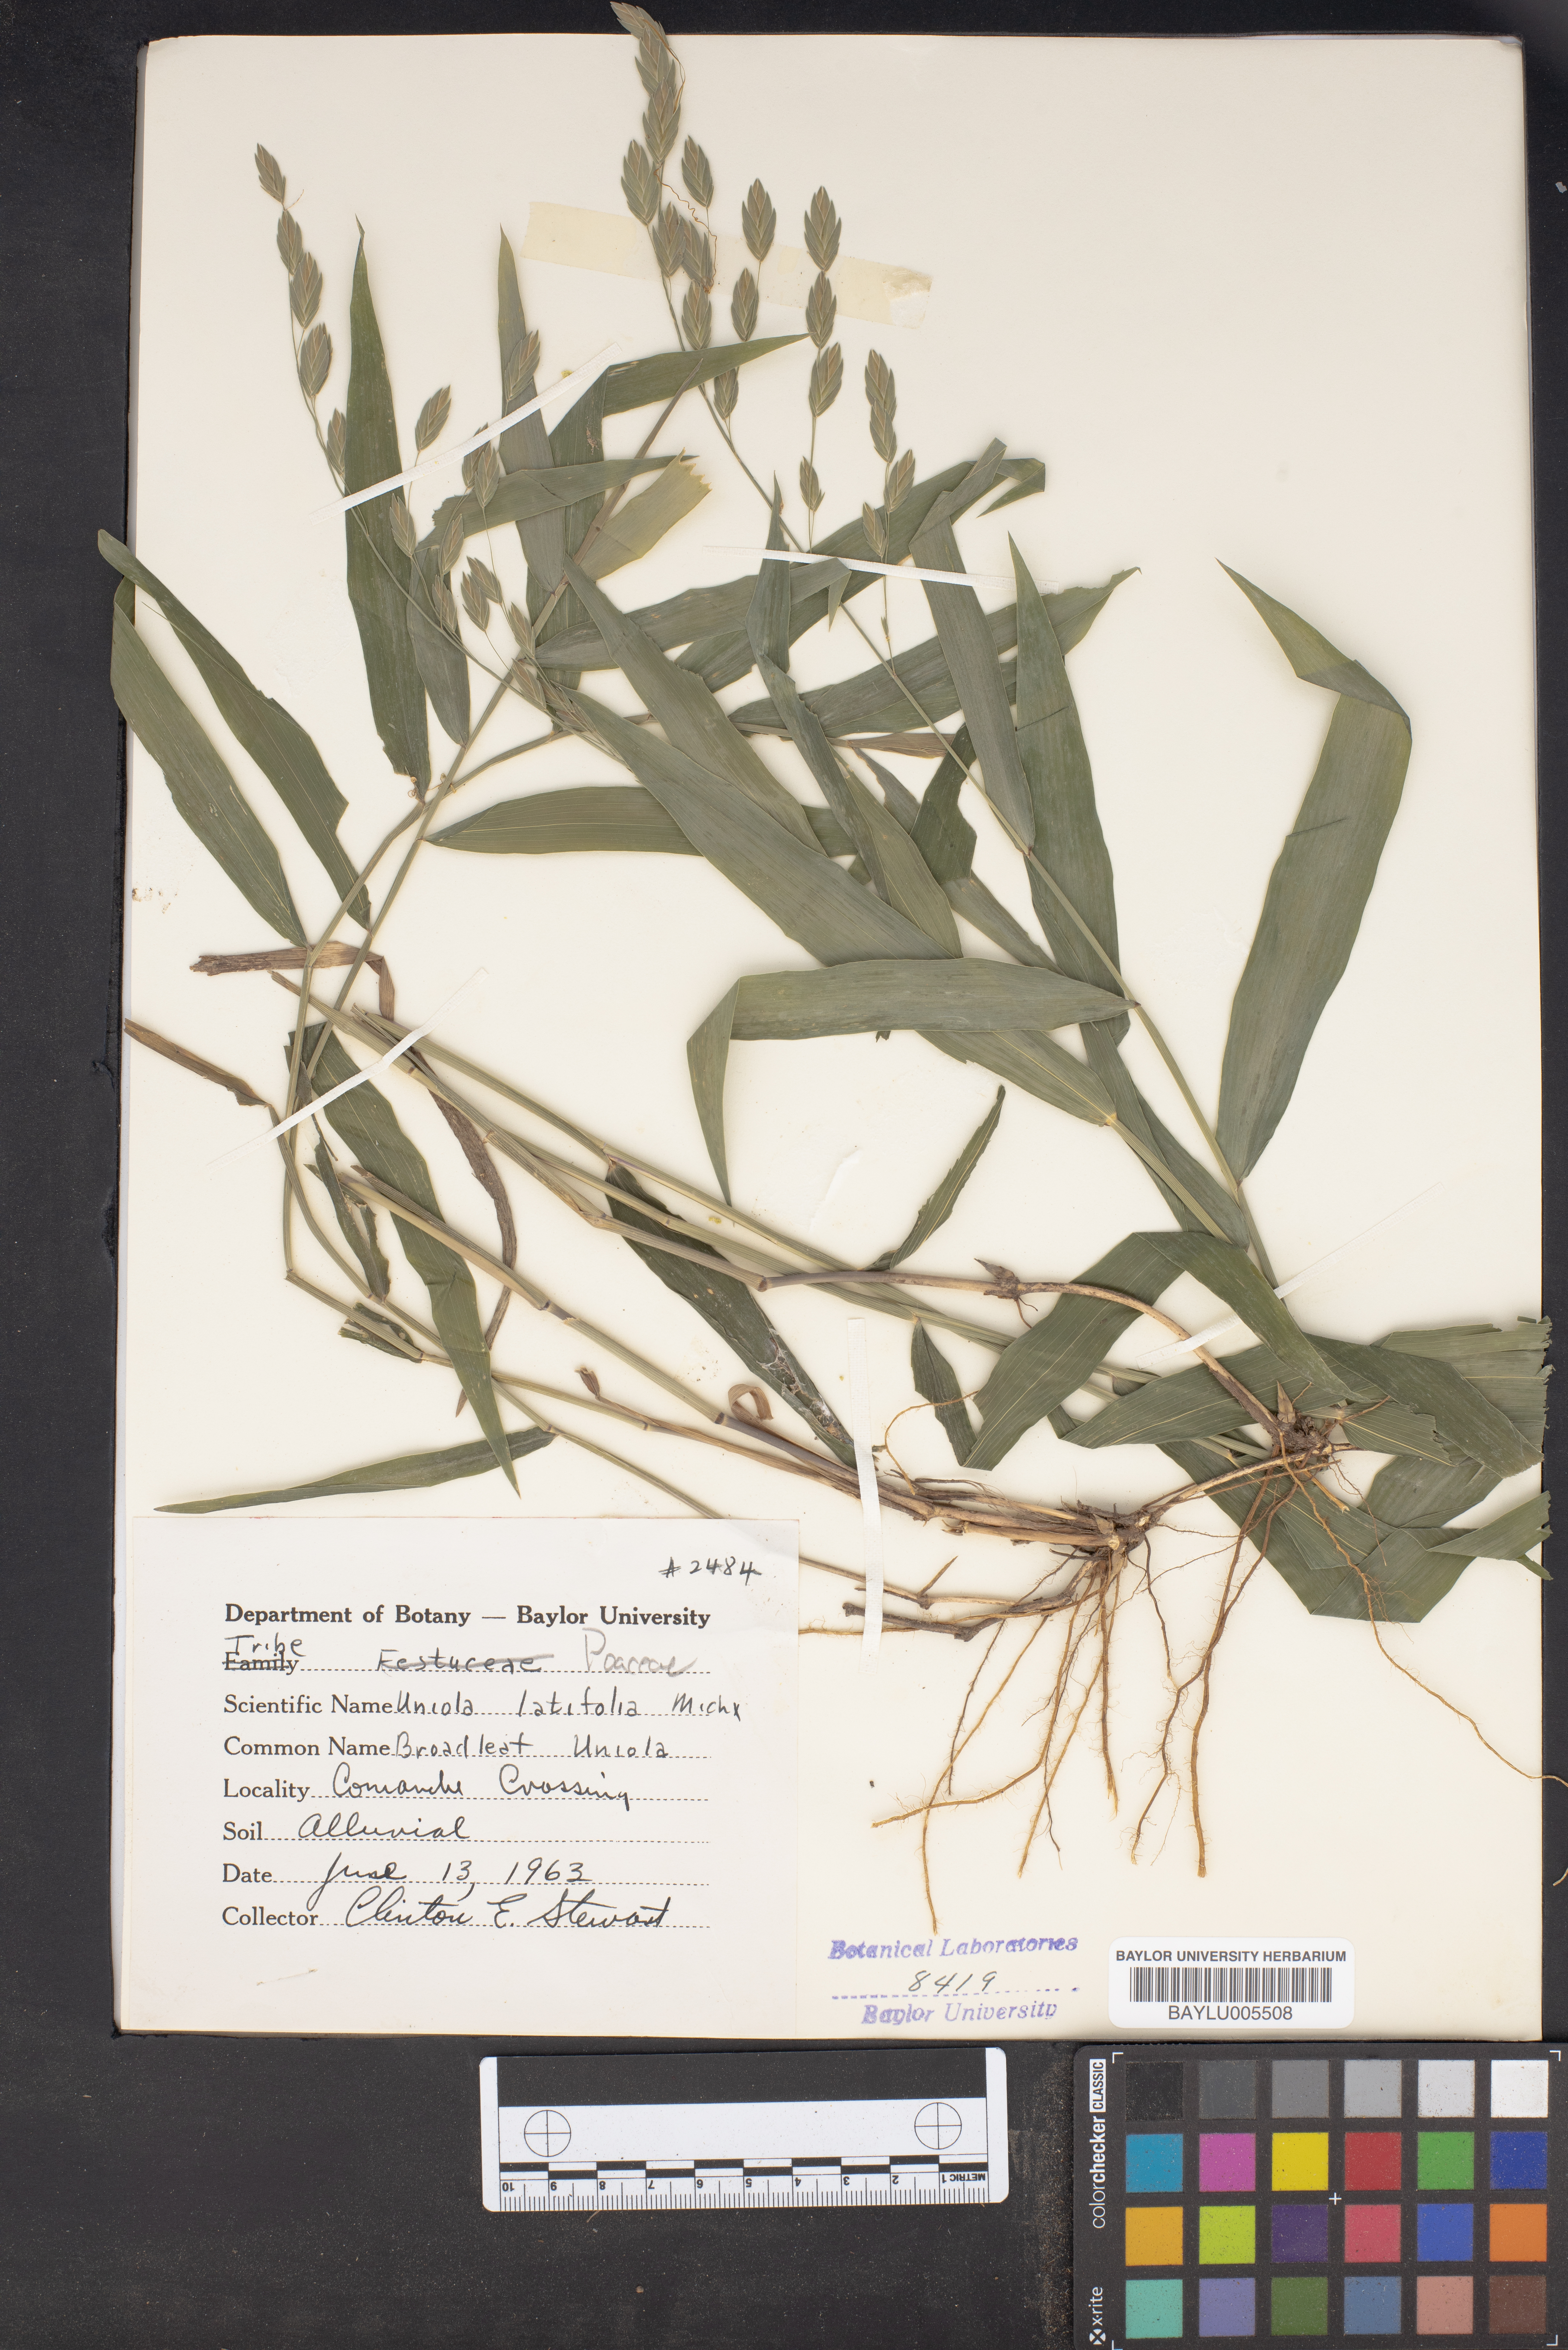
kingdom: Plantae
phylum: Tracheophyta
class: Liliopsida
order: Poales
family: Poaceae
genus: Chasmanthium
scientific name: Chasmanthium latifolium
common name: Broad-leaved chasmanthium
